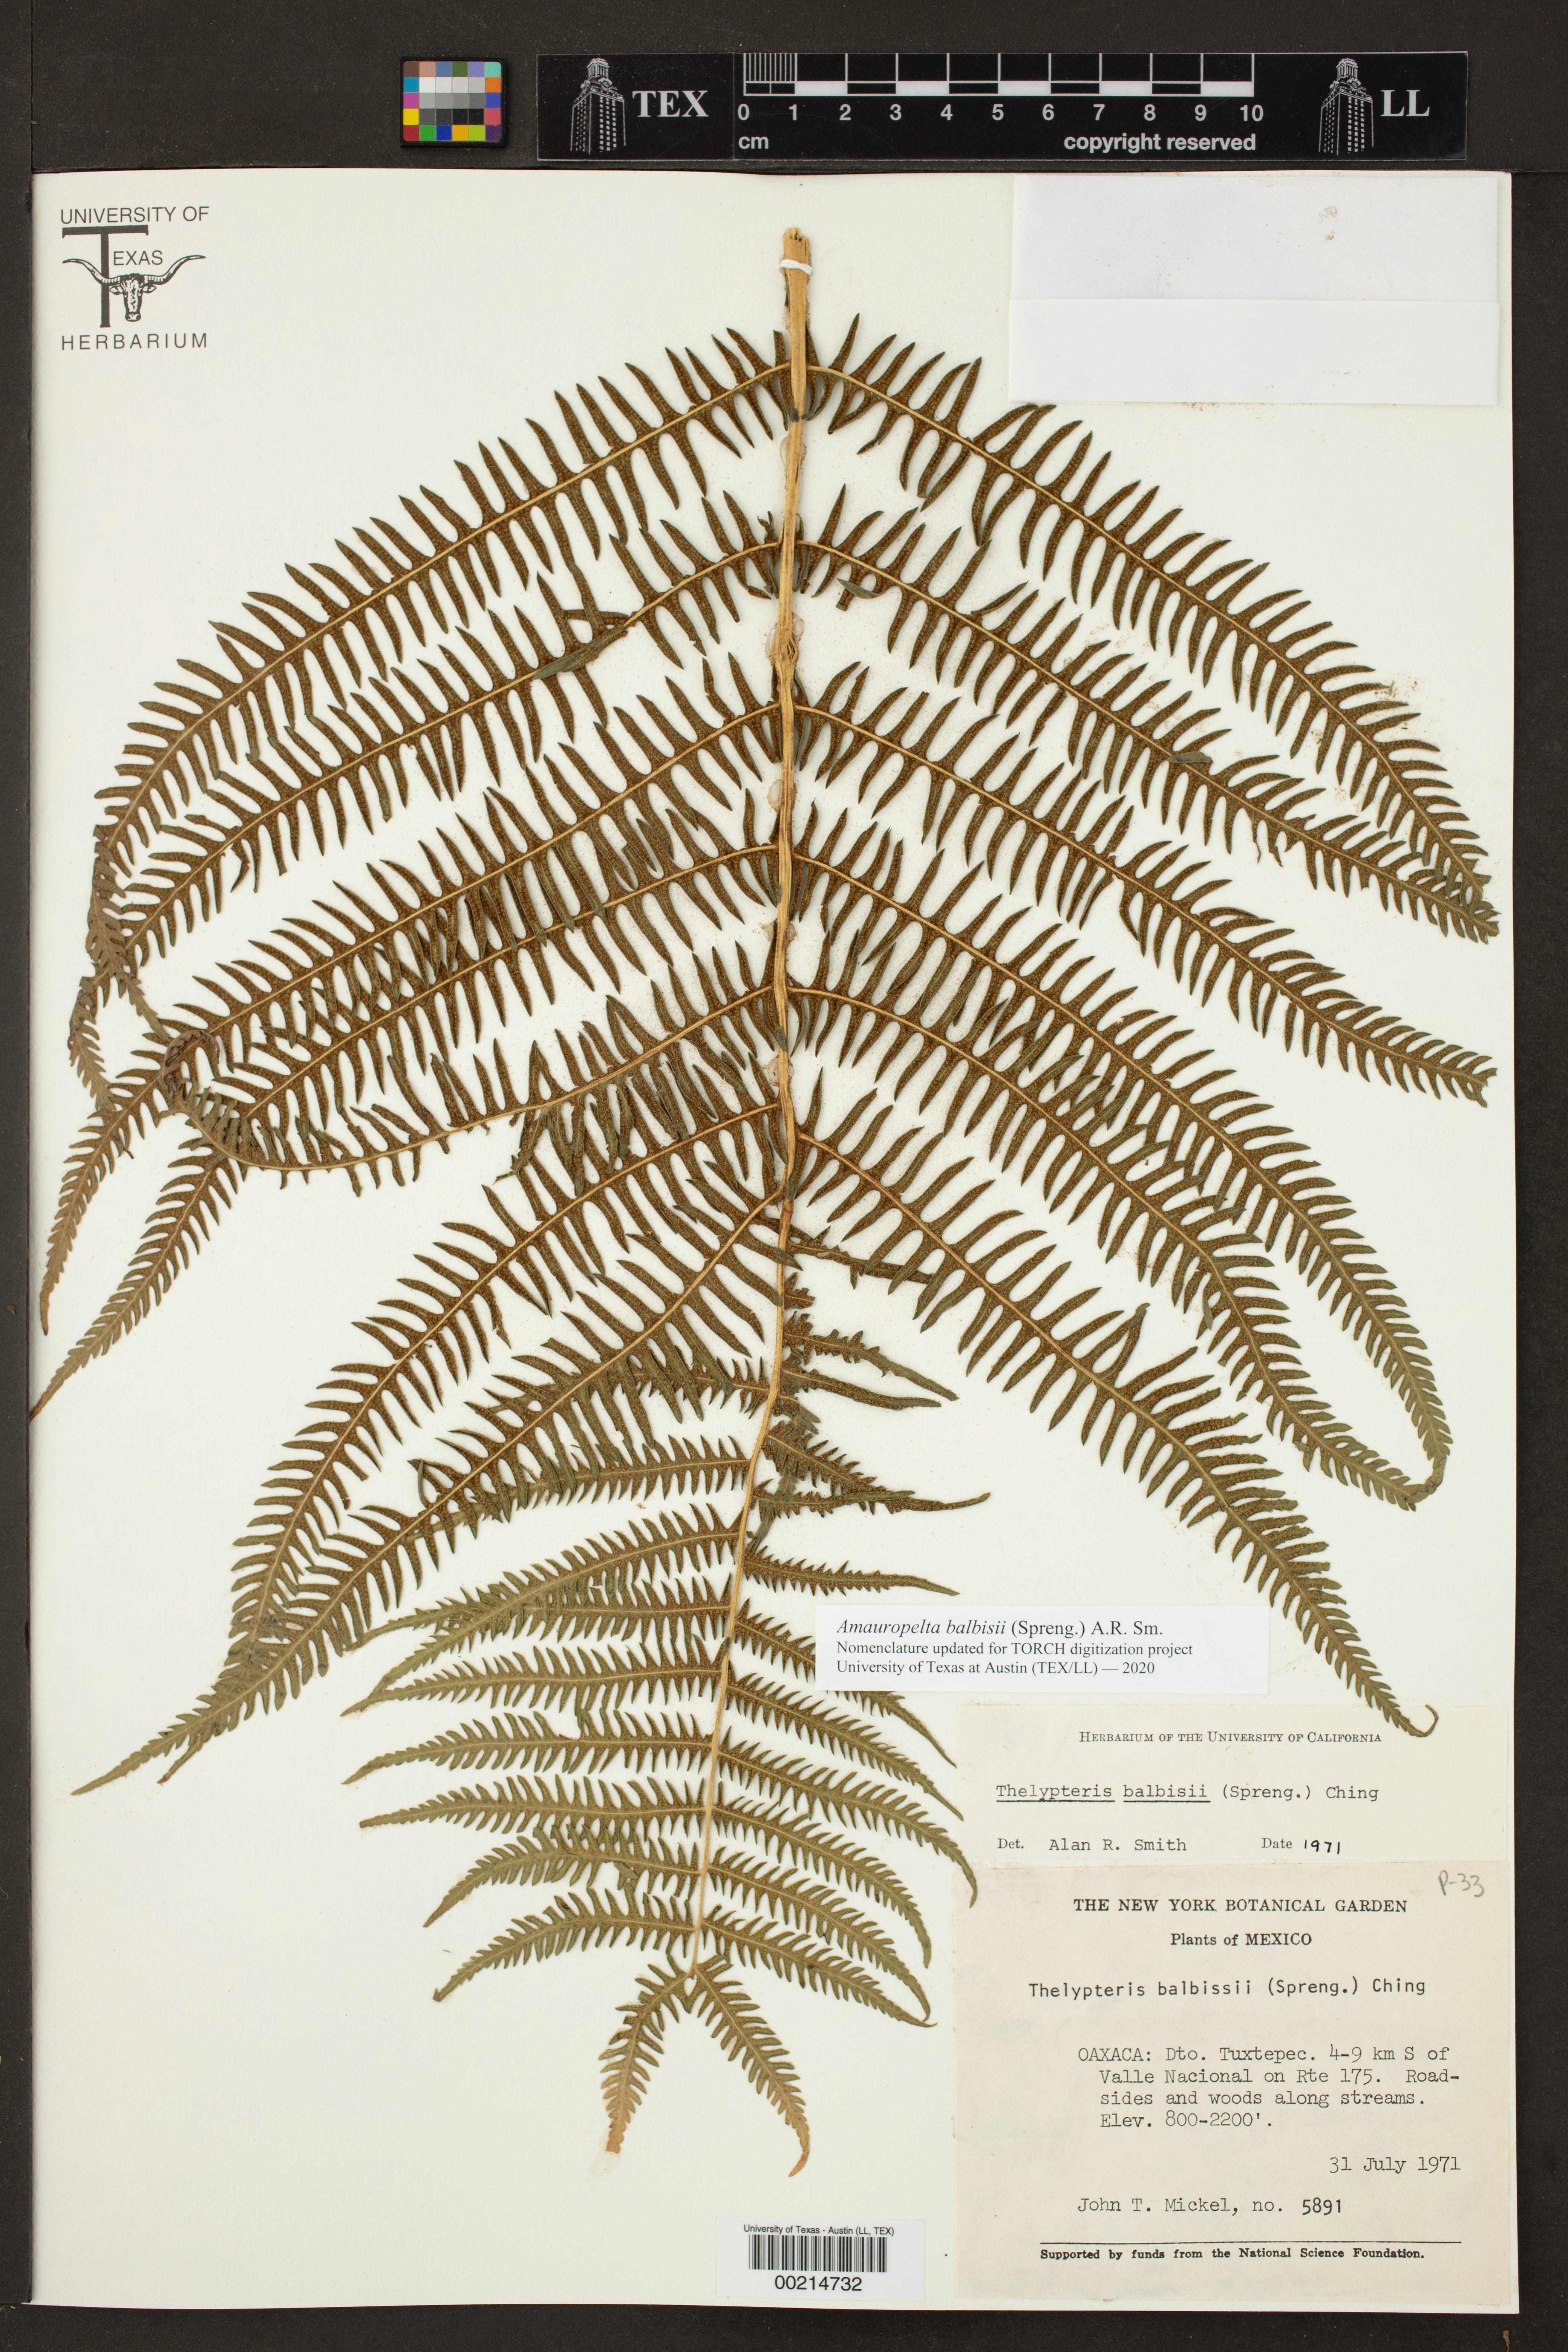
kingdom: Plantae
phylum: Tracheophyta
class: Polypodiopsida
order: Polypodiales
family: Thelypteridaceae
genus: Amauropelta
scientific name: Amauropelta balbisii
